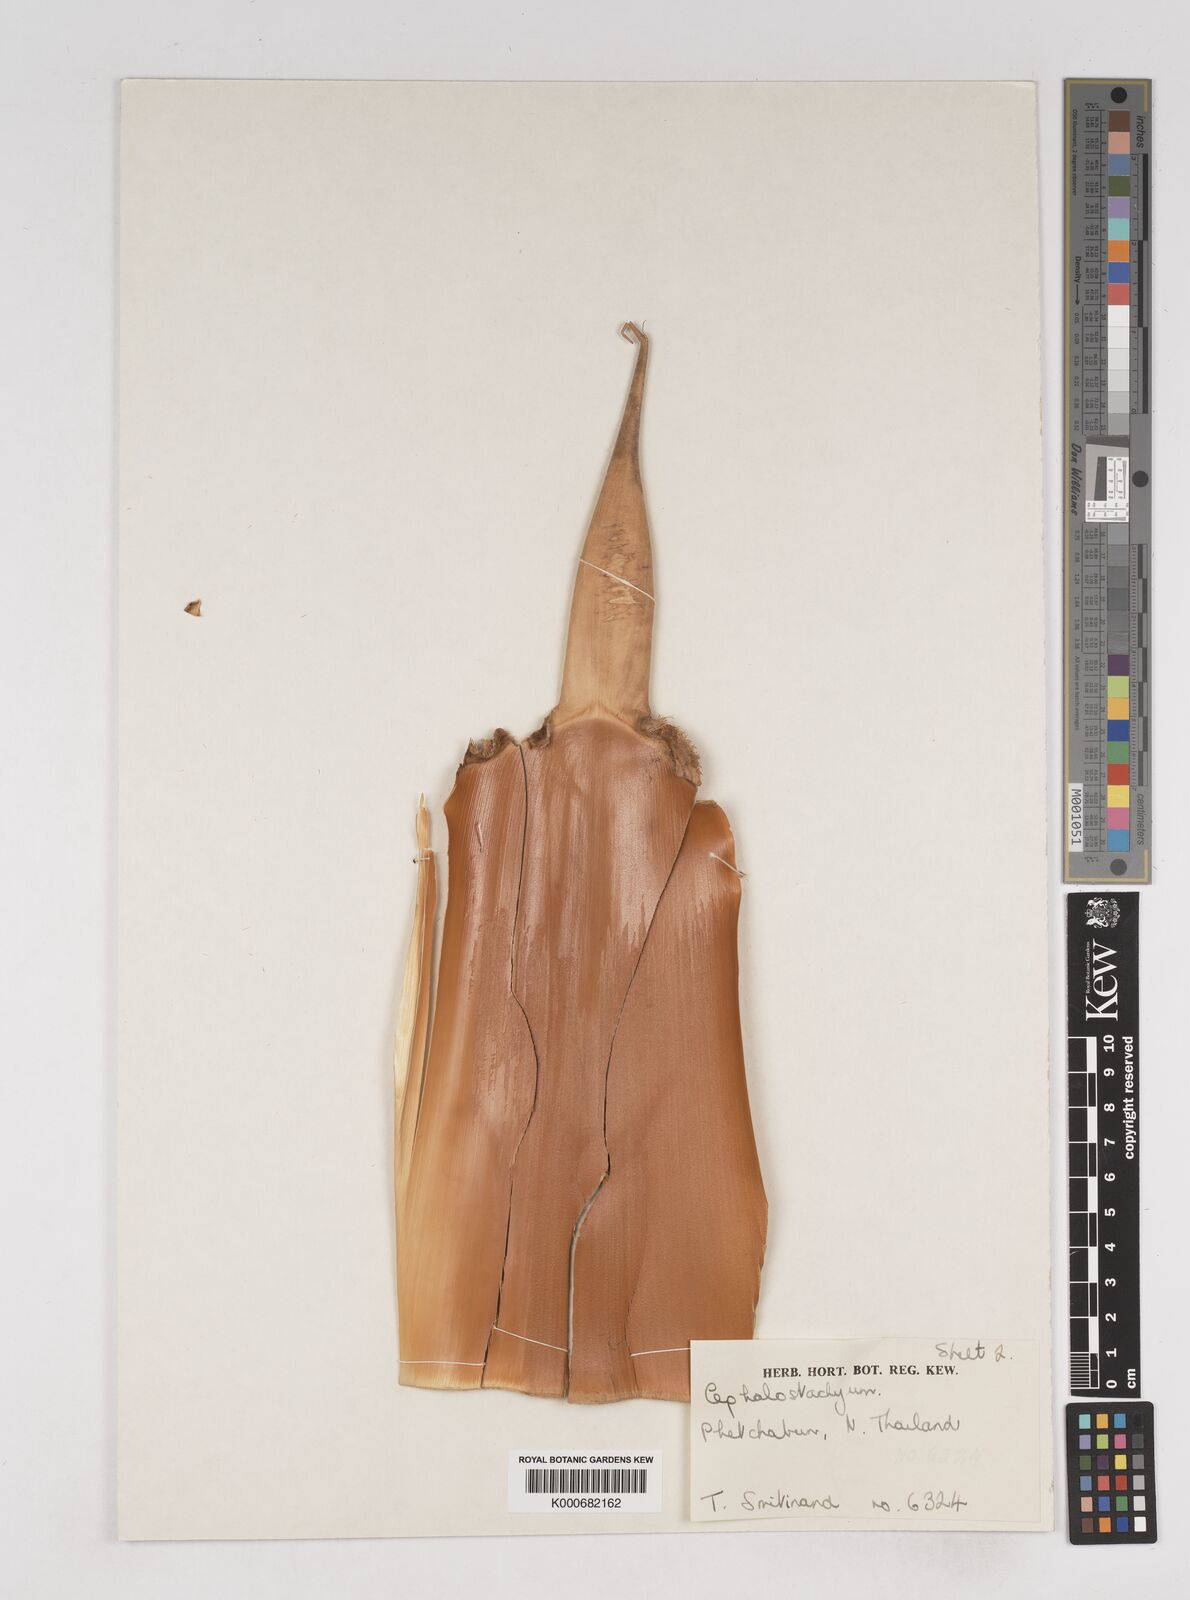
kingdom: Plantae
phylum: Tracheophyta
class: Liliopsida
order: Poales
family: Poaceae
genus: Cephalostachyum
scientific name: Cephalostachyum
